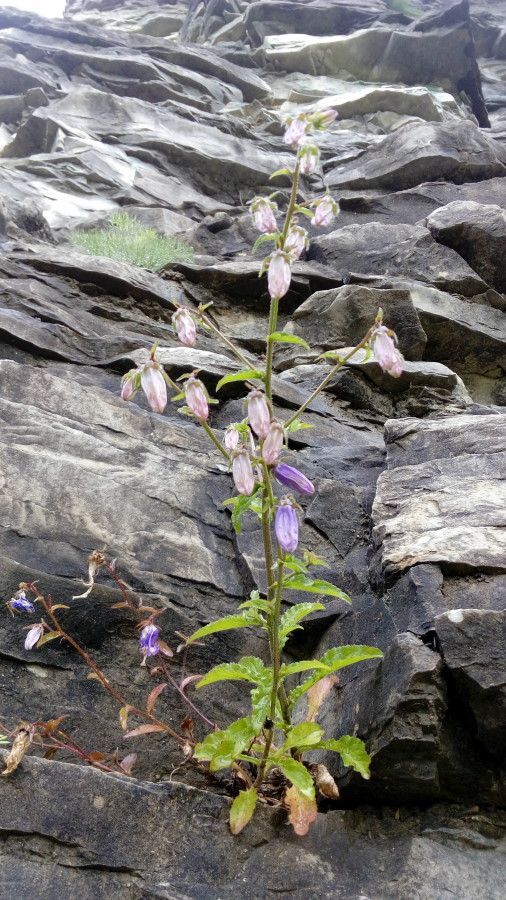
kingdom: Plantae
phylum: Tracheophyta
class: Magnoliopsida
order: Asterales
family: Campanulaceae
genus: Campanula
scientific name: Campanula longistyla
